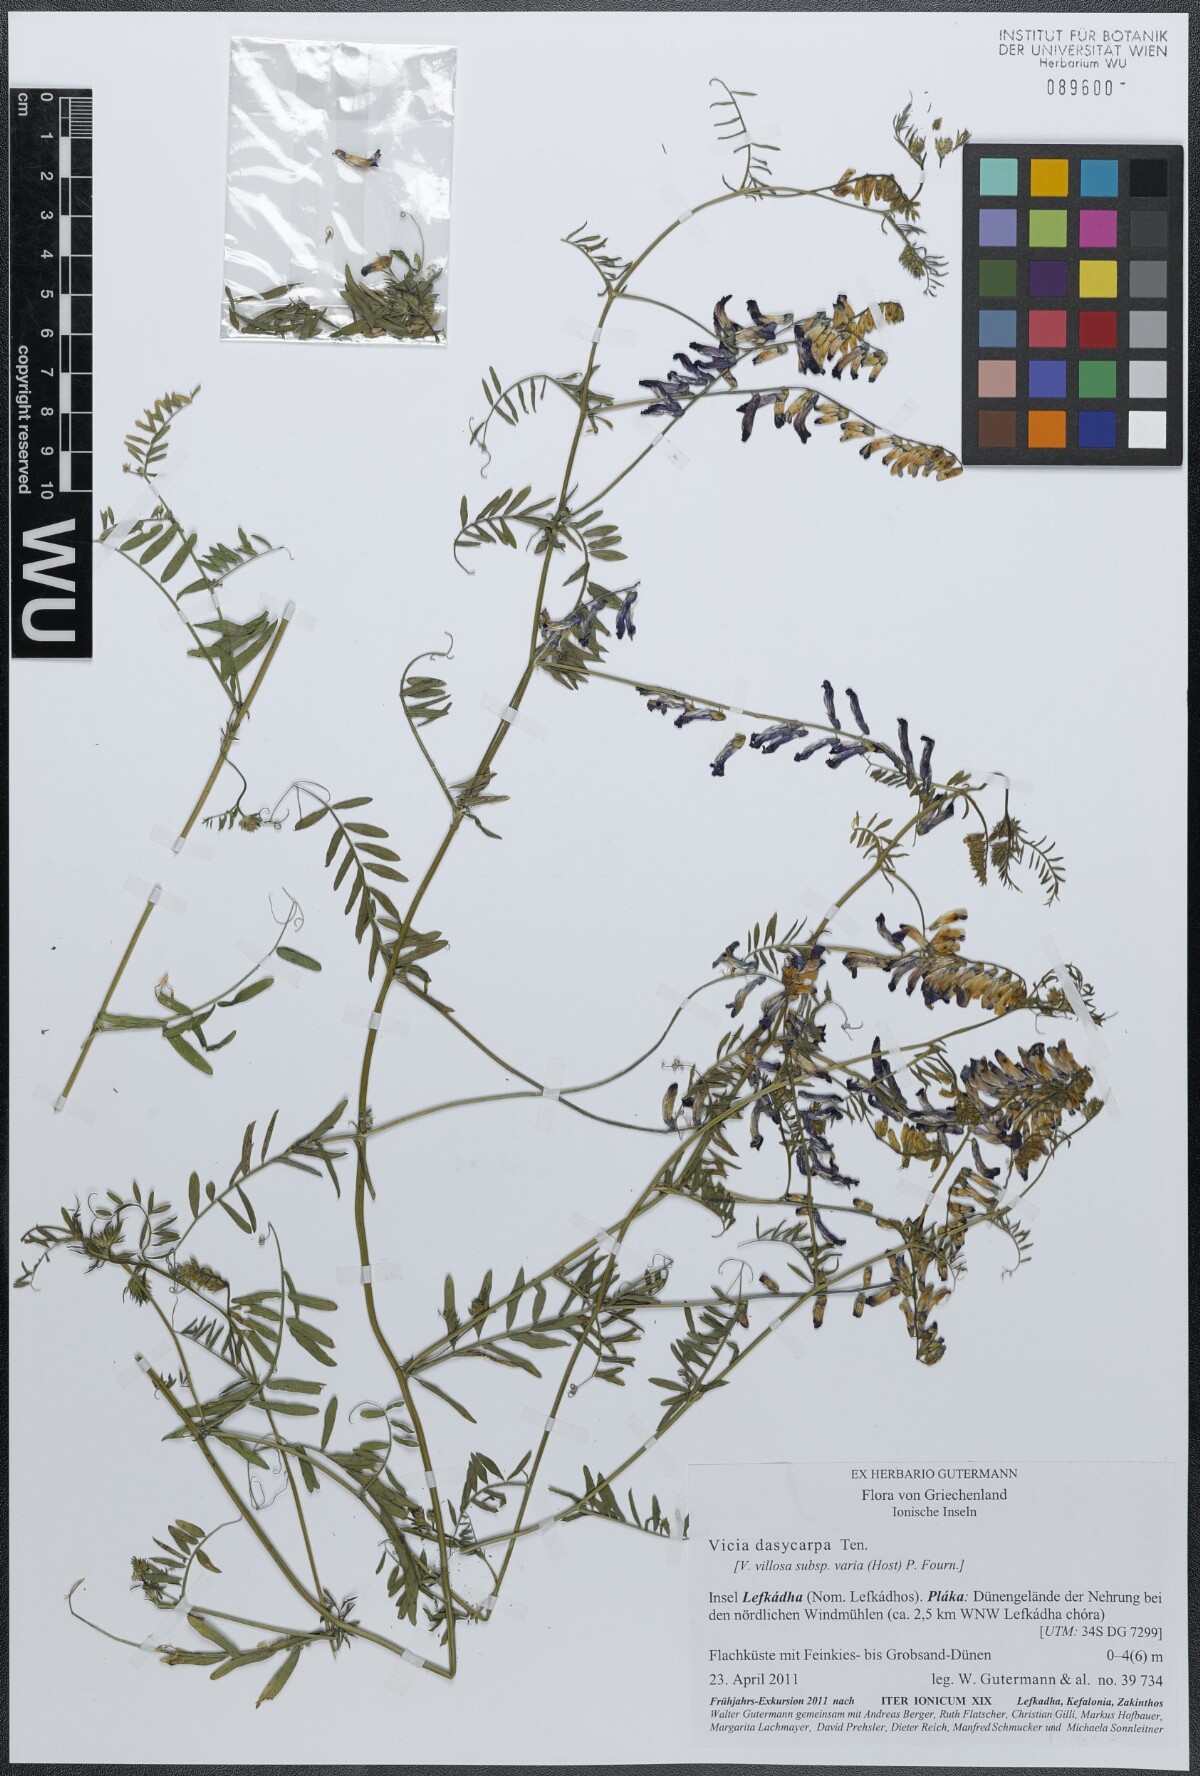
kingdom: Plantae
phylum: Tracheophyta
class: Magnoliopsida
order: Fabales
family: Fabaceae
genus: Vicia
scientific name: Vicia villosa
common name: Fodder vetch
